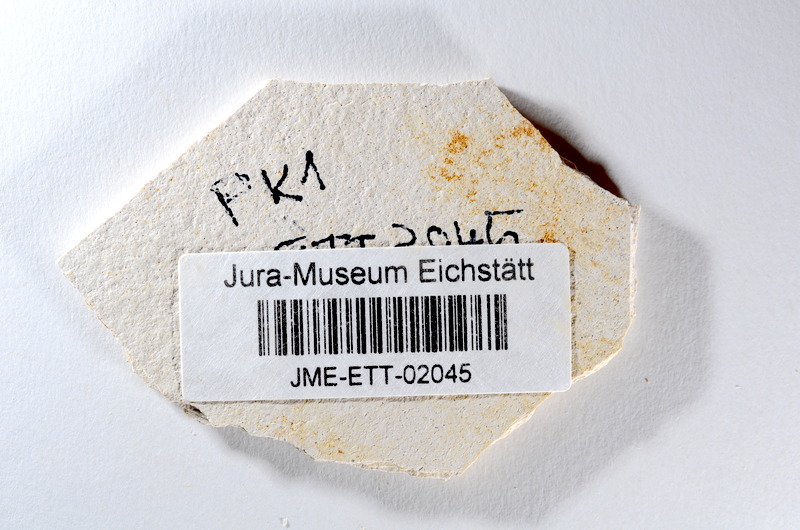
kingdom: Animalia
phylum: Chordata
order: Salmoniformes
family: Orthogonikleithridae
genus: Orthogonikleithrus
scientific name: Orthogonikleithrus hoelli
